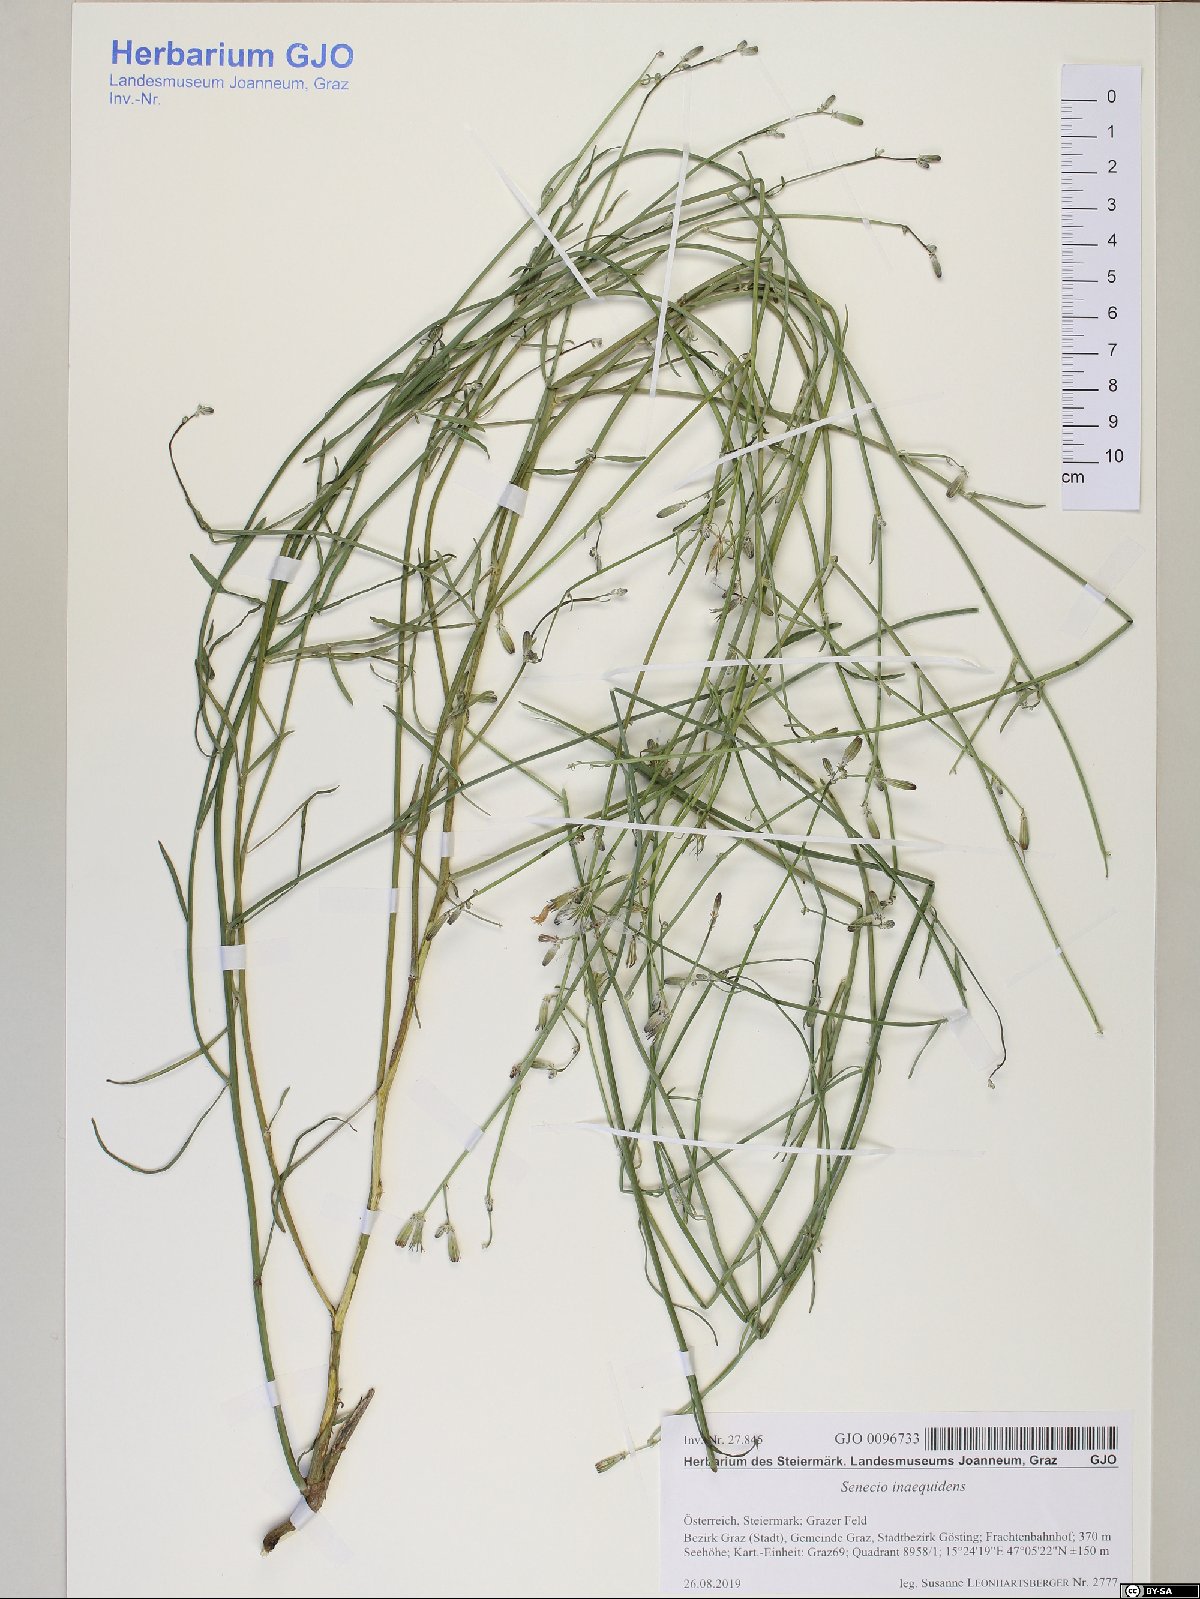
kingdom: Plantae
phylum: Tracheophyta
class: Magnoliopsida
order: Asterales
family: Asteraceae
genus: Senecio
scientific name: Senecio inaequidens
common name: Narrow-leaved ragwort
